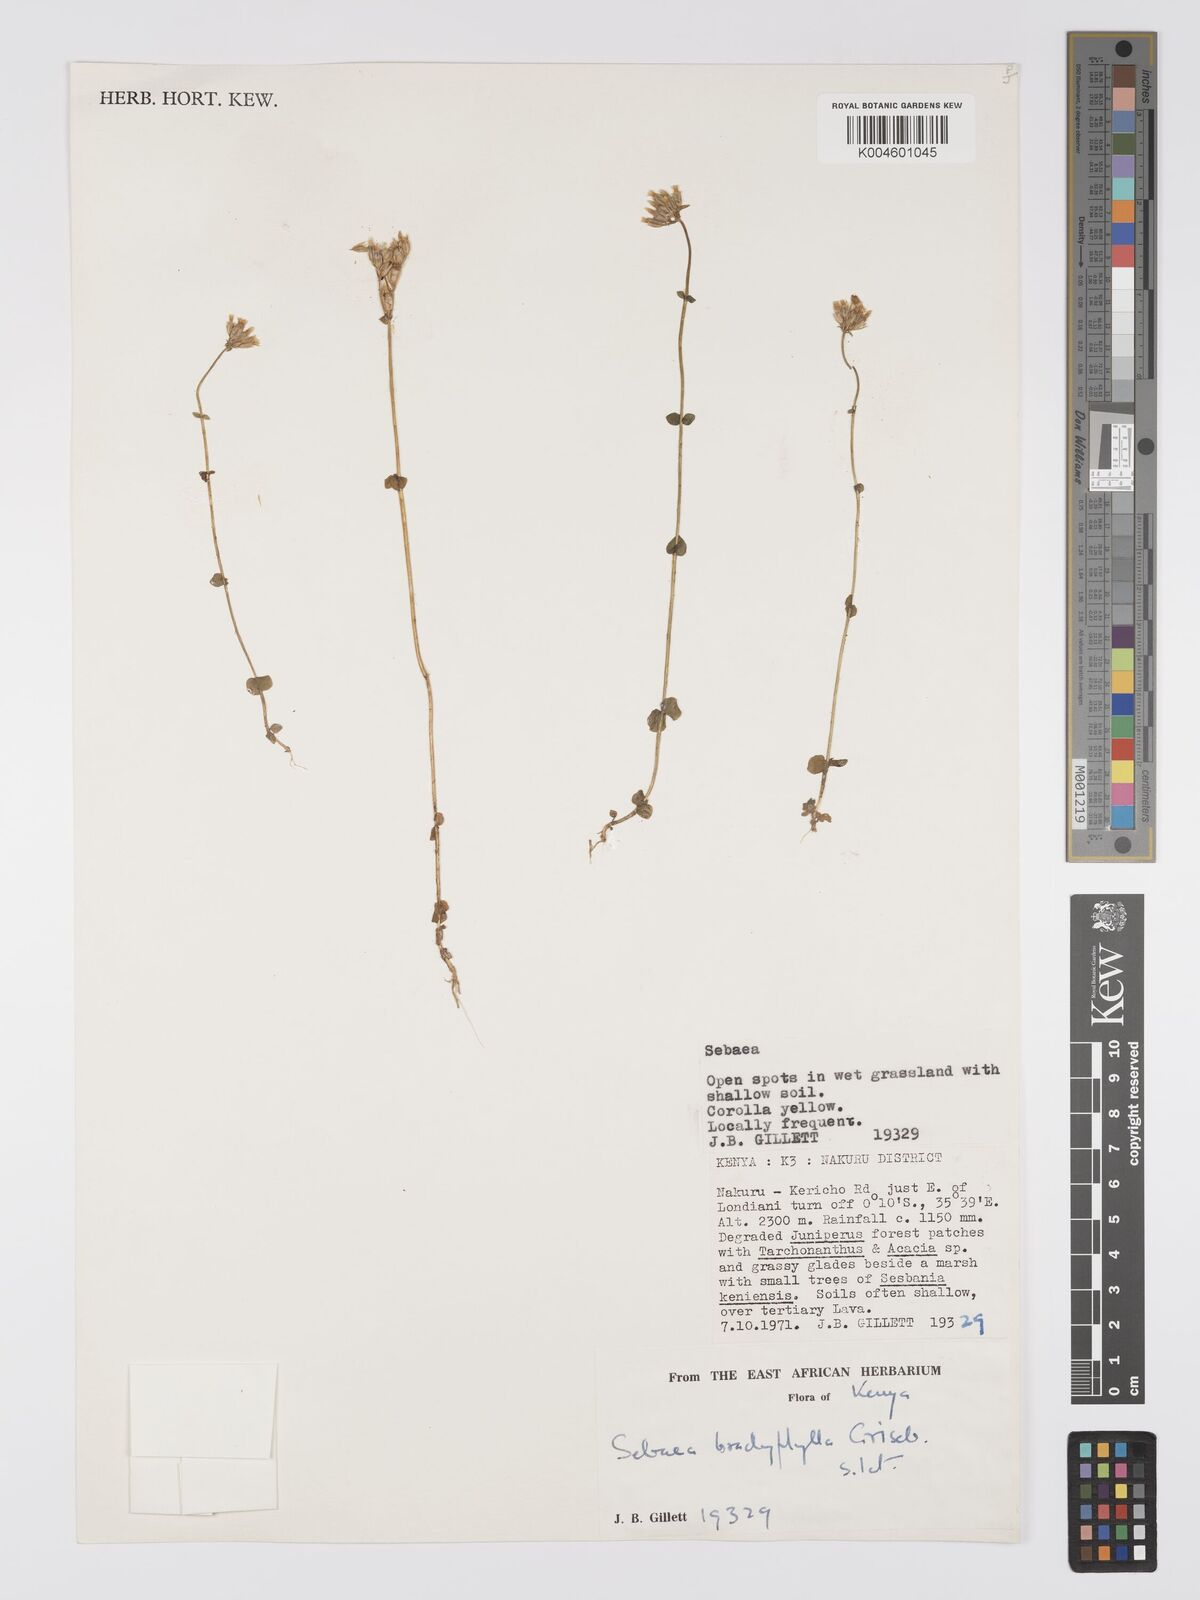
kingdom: Plantae
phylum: Tracheophyta
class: Magnoliopsida
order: Gentianales
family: Gentianaceae
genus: Sebaea
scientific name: Sebaea brachyphylla
